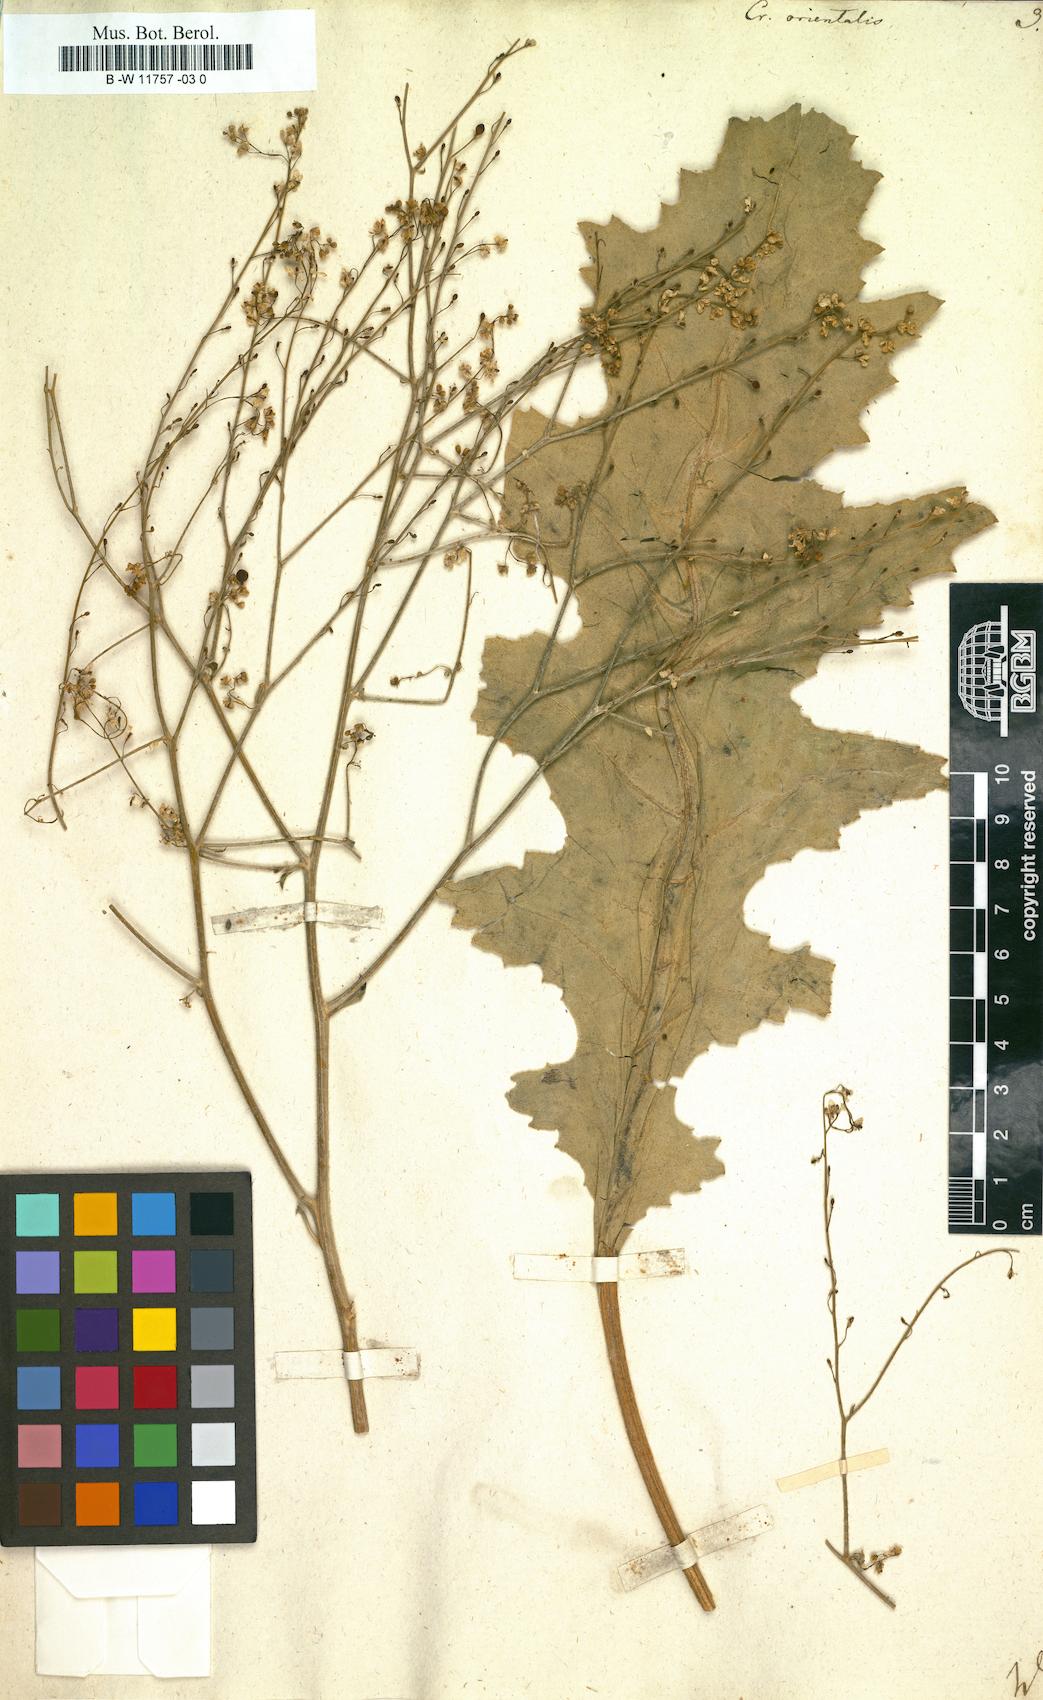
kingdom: Plantae
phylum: Tracheophyta
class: Magnoliopsida
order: Brassicales
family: Brassicaceae
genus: Crambe
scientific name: Crambe orientalis
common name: Oriental sea-kale
